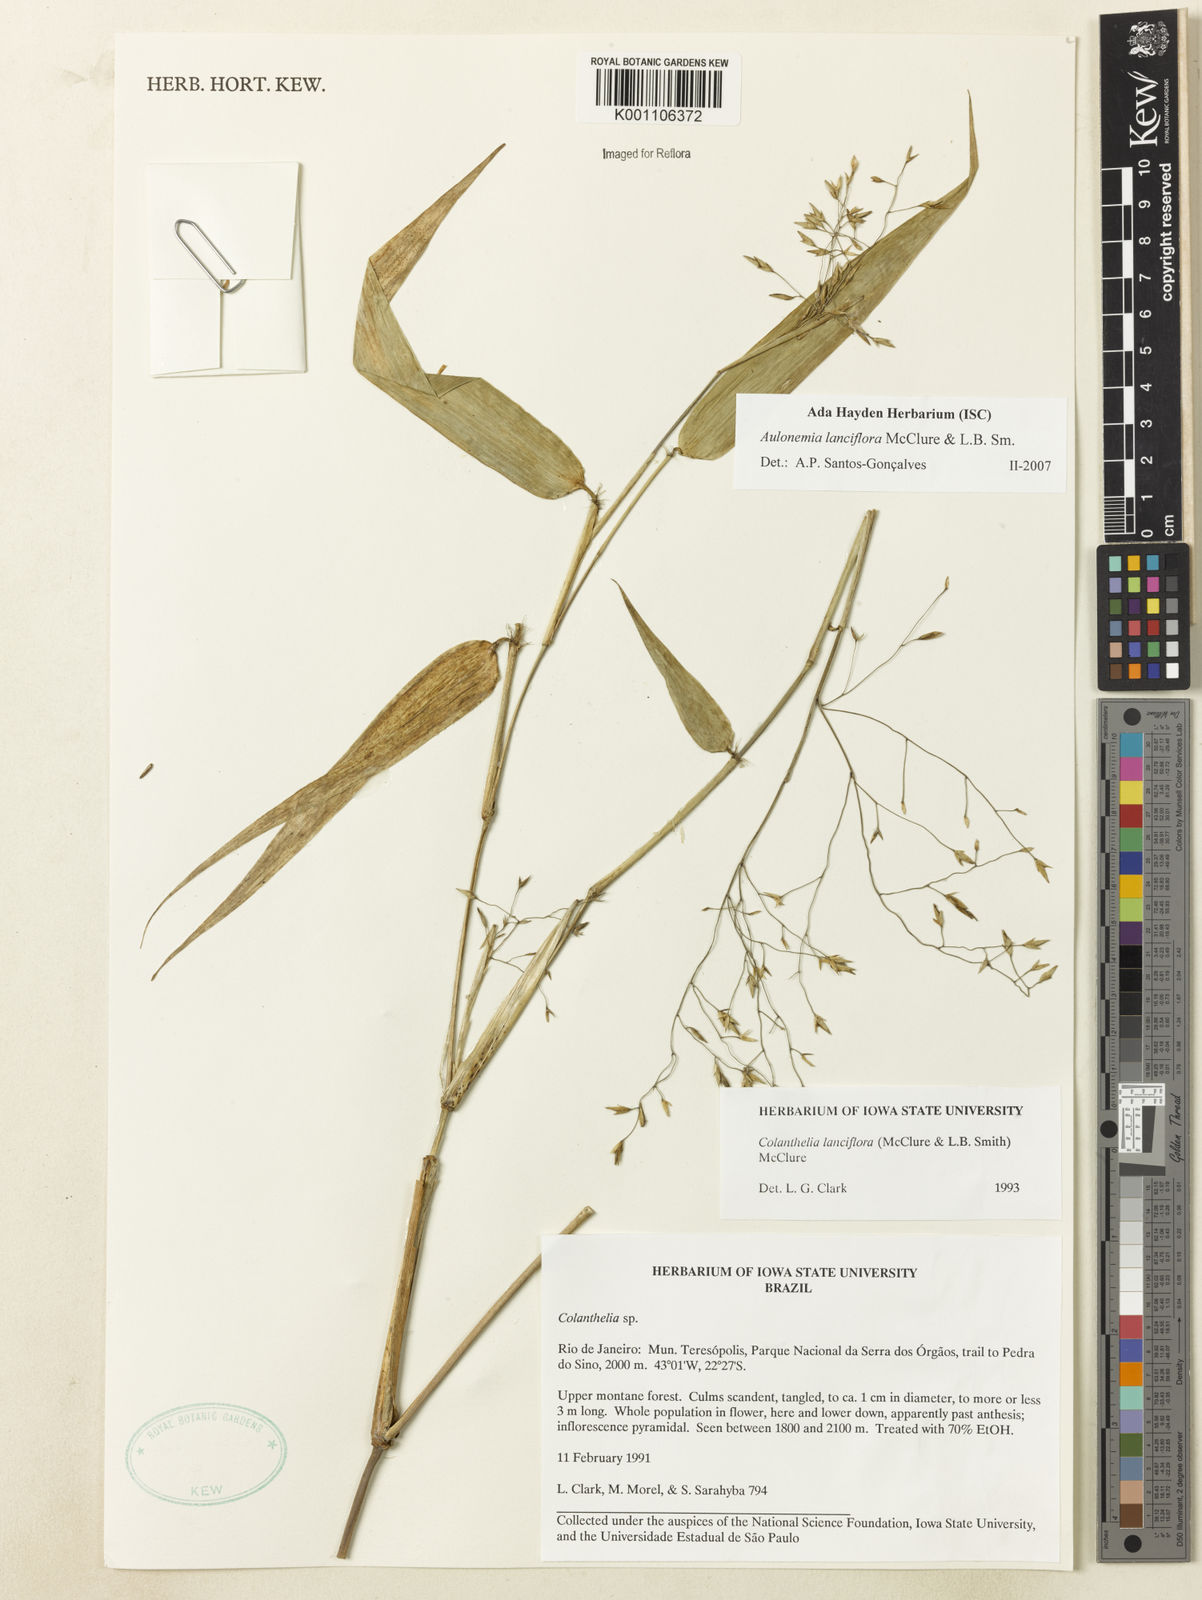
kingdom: Plantae
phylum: Tracheophyta
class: Liliopsida
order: Poales
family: Poaceae
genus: Colanthelia
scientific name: Colanthelia lanciflora
